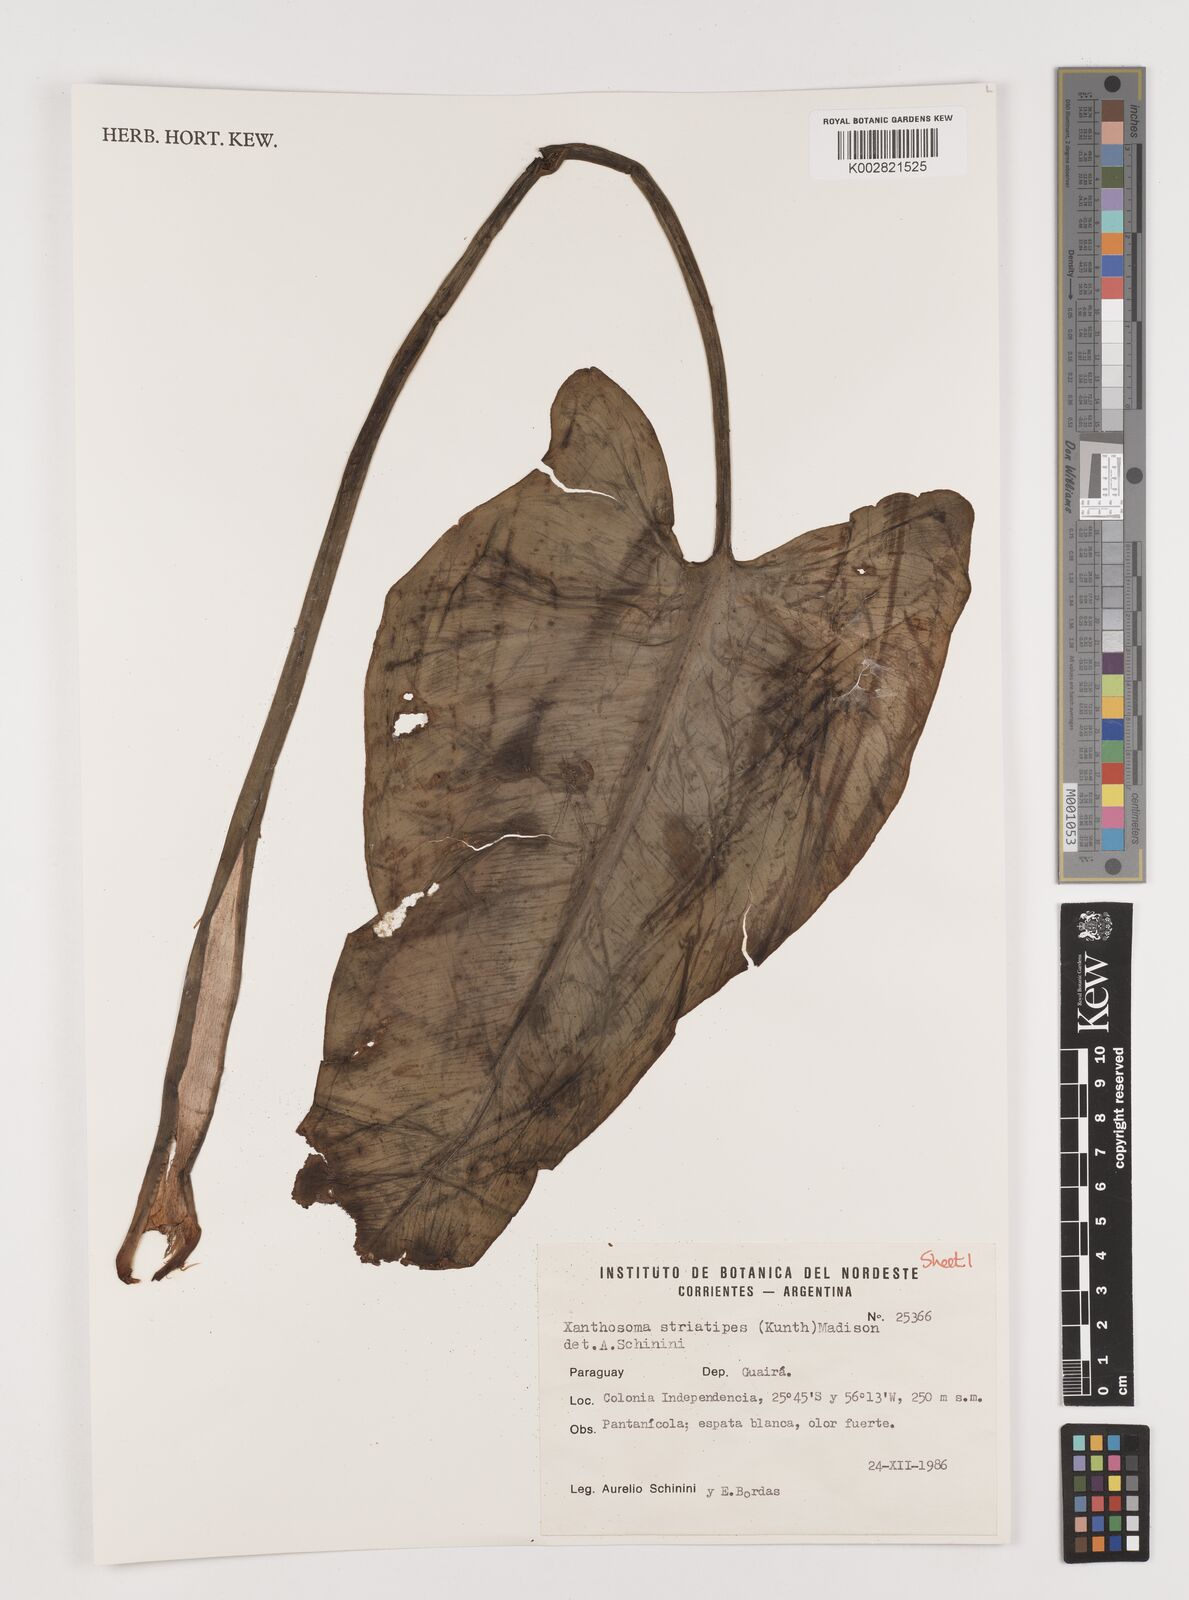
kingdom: Plantae
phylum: Tracheophyta
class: Liliopsida
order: Alismatales
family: Araceae
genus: Xanthosoma
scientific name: Xanthosoma striatipes
